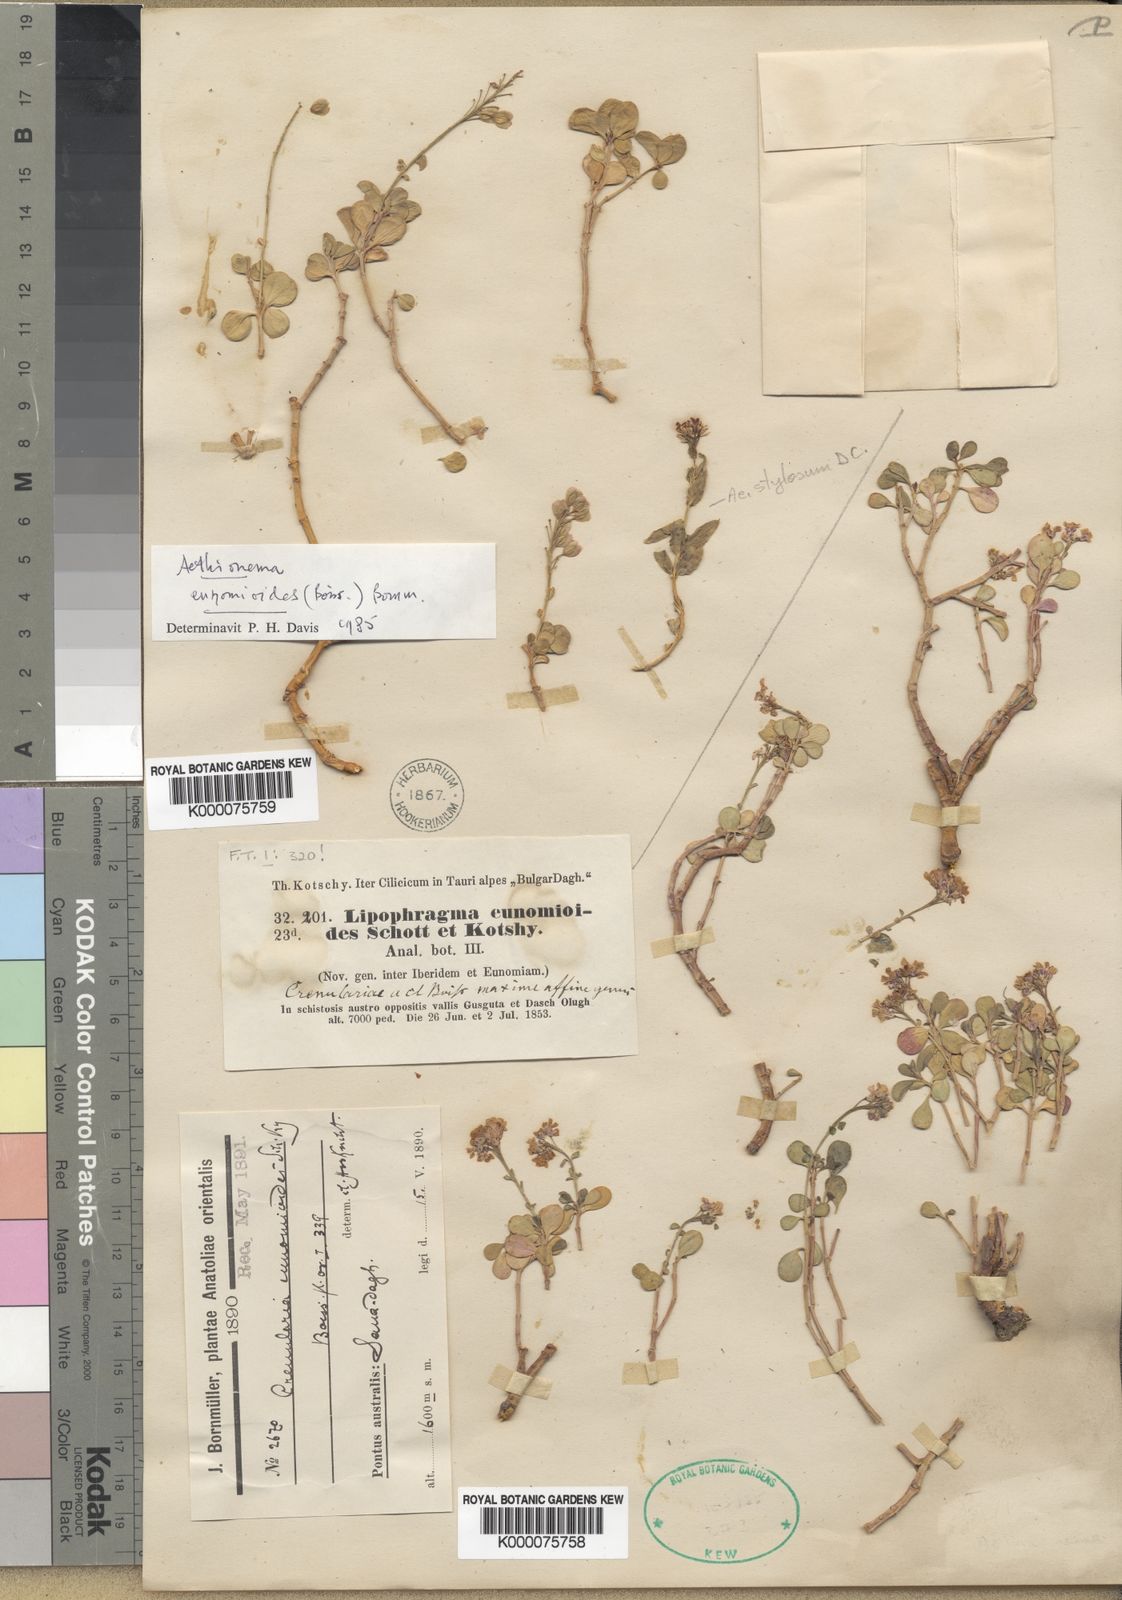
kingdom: Plantae
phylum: Tracheophyta
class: Magnoliopsida
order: Brassicales
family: Brassicaceae
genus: Aethionema
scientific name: Aethionema eunomioides
